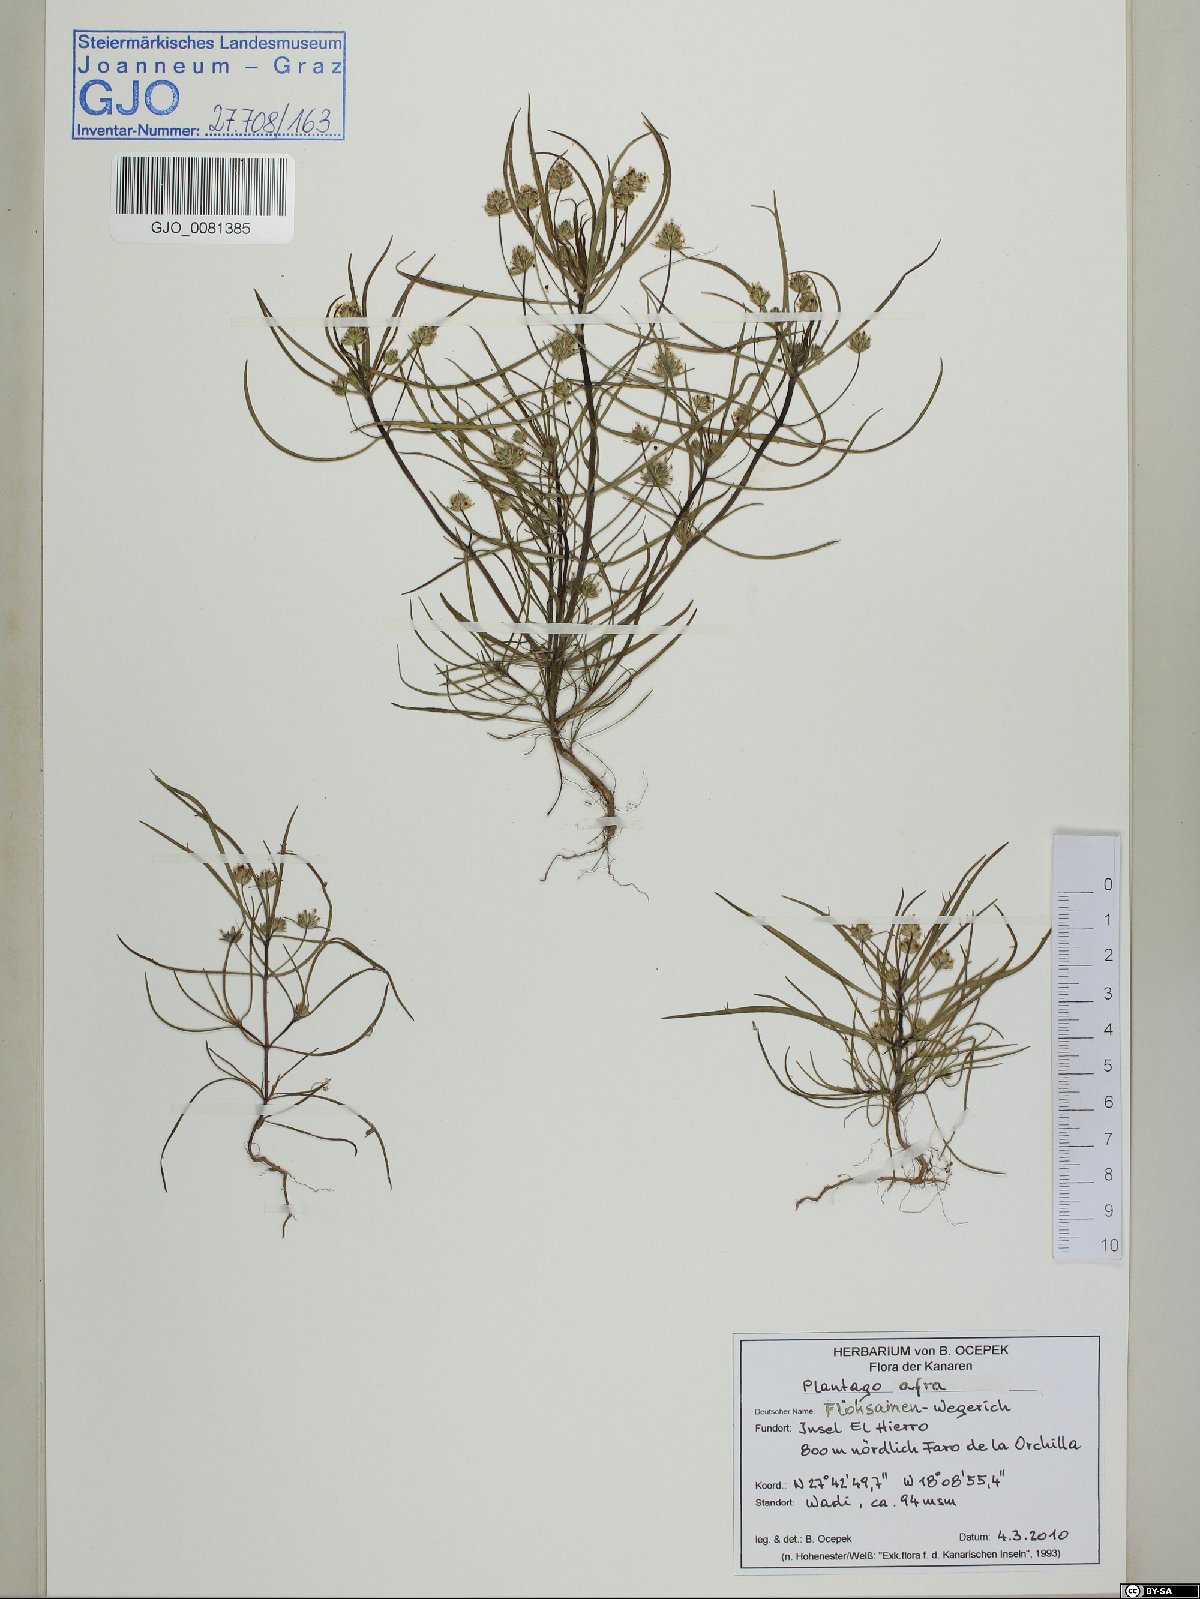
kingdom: Plantae
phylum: Tracheophyta
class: Magnoliopsida
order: Lamiales
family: Plantaginaceae
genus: Plantago
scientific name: Plantago afra
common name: Glandular plantain
